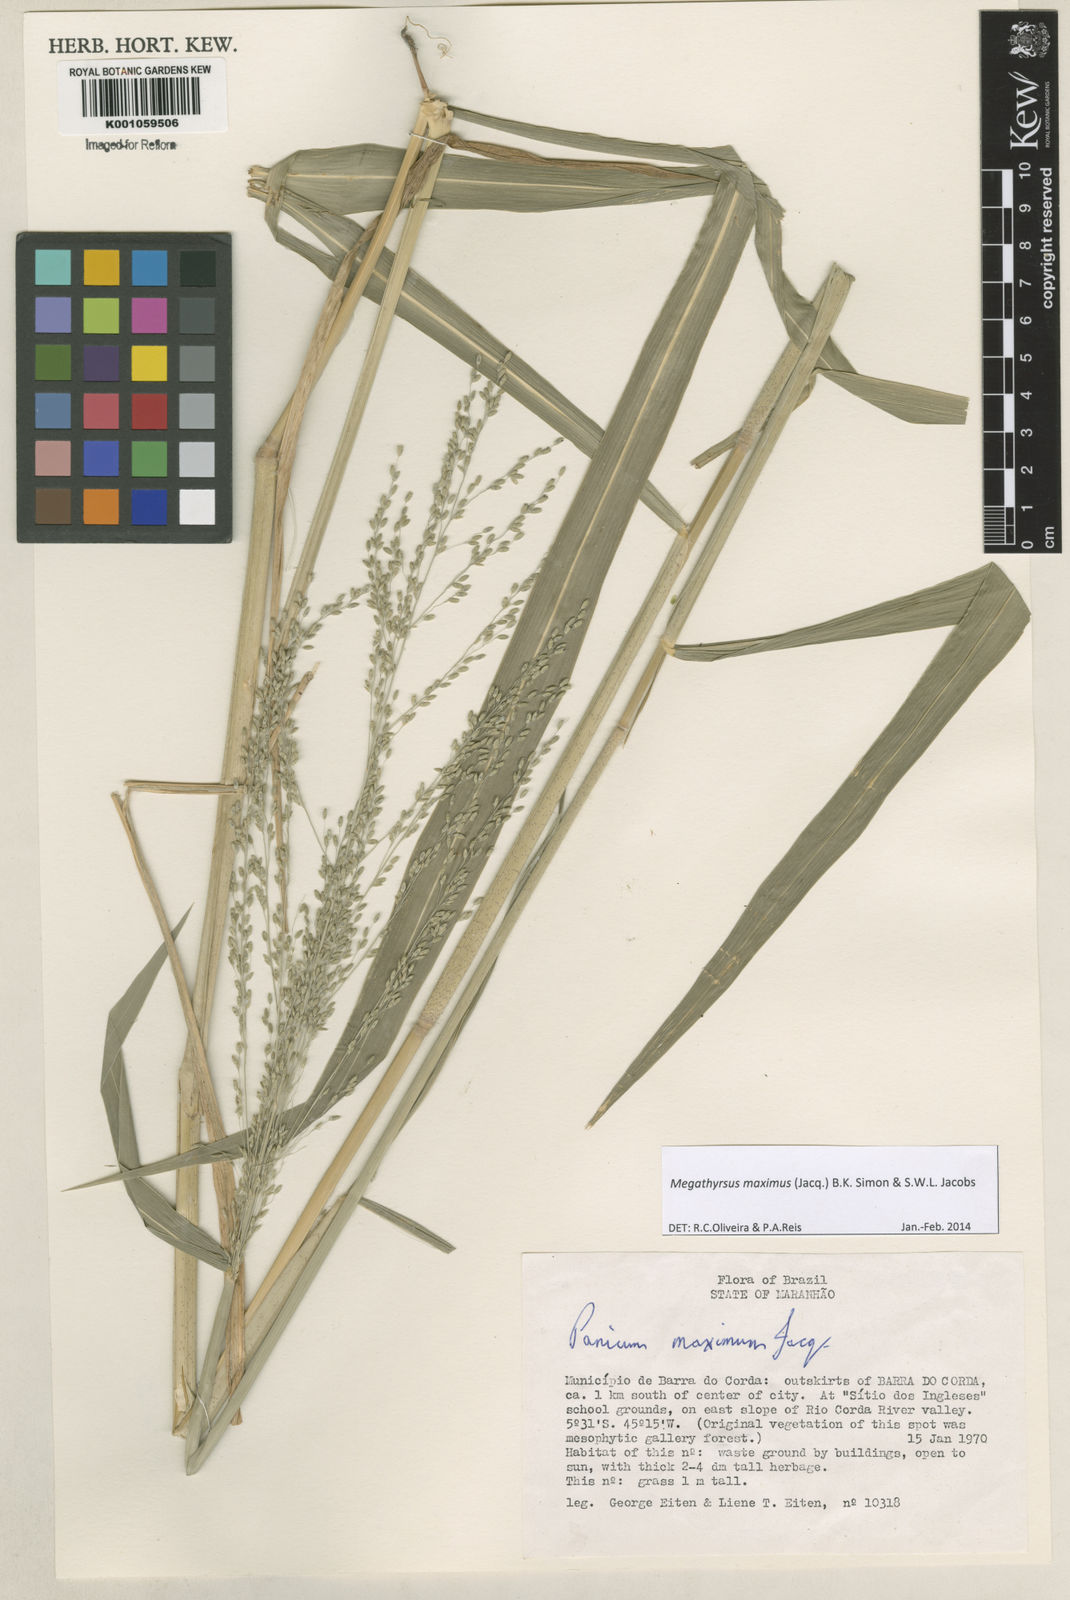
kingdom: Plantae
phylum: Tracheophyta
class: Liliopsida
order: Poales
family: Poaceae
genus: Megathyrsus
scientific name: Megathyrsus maximus
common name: Guineagrass
